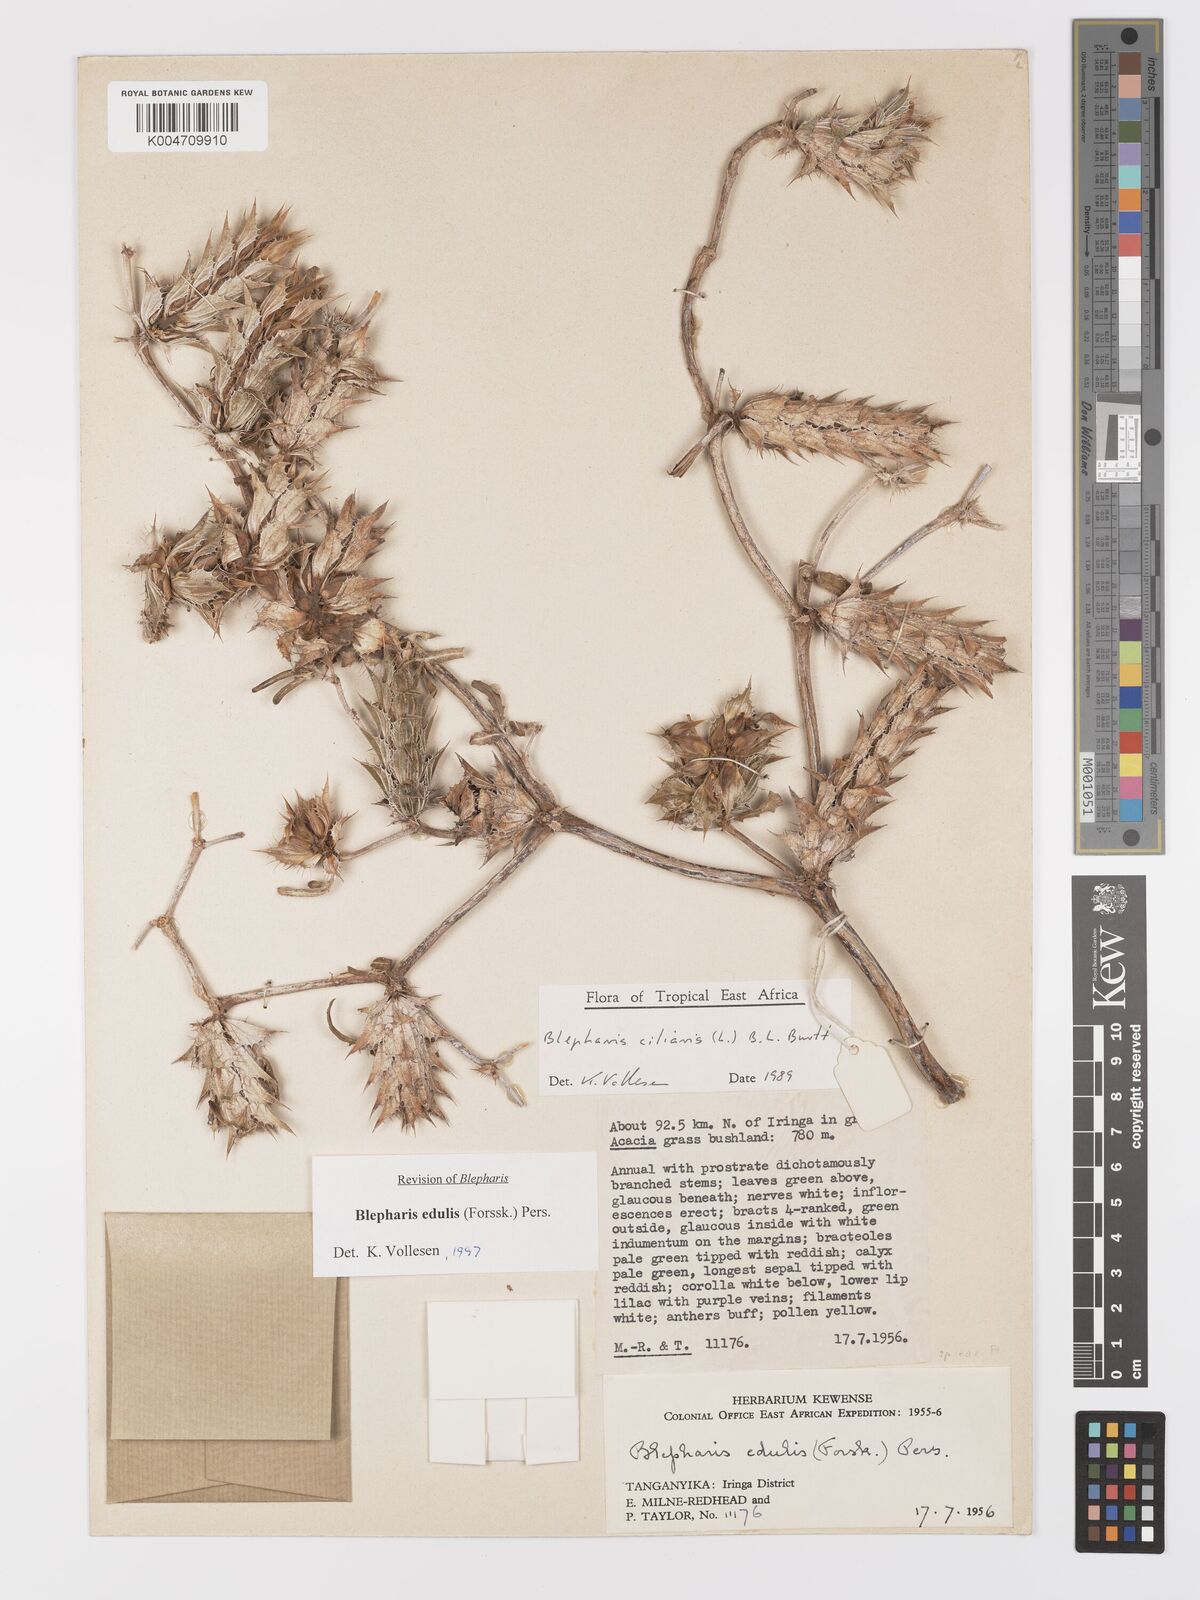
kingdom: Plantae
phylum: Tracheophyta
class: Magnoliopsida
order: Lamiales
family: Acanthaceae
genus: Blepharis
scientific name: Blepharis edulis
